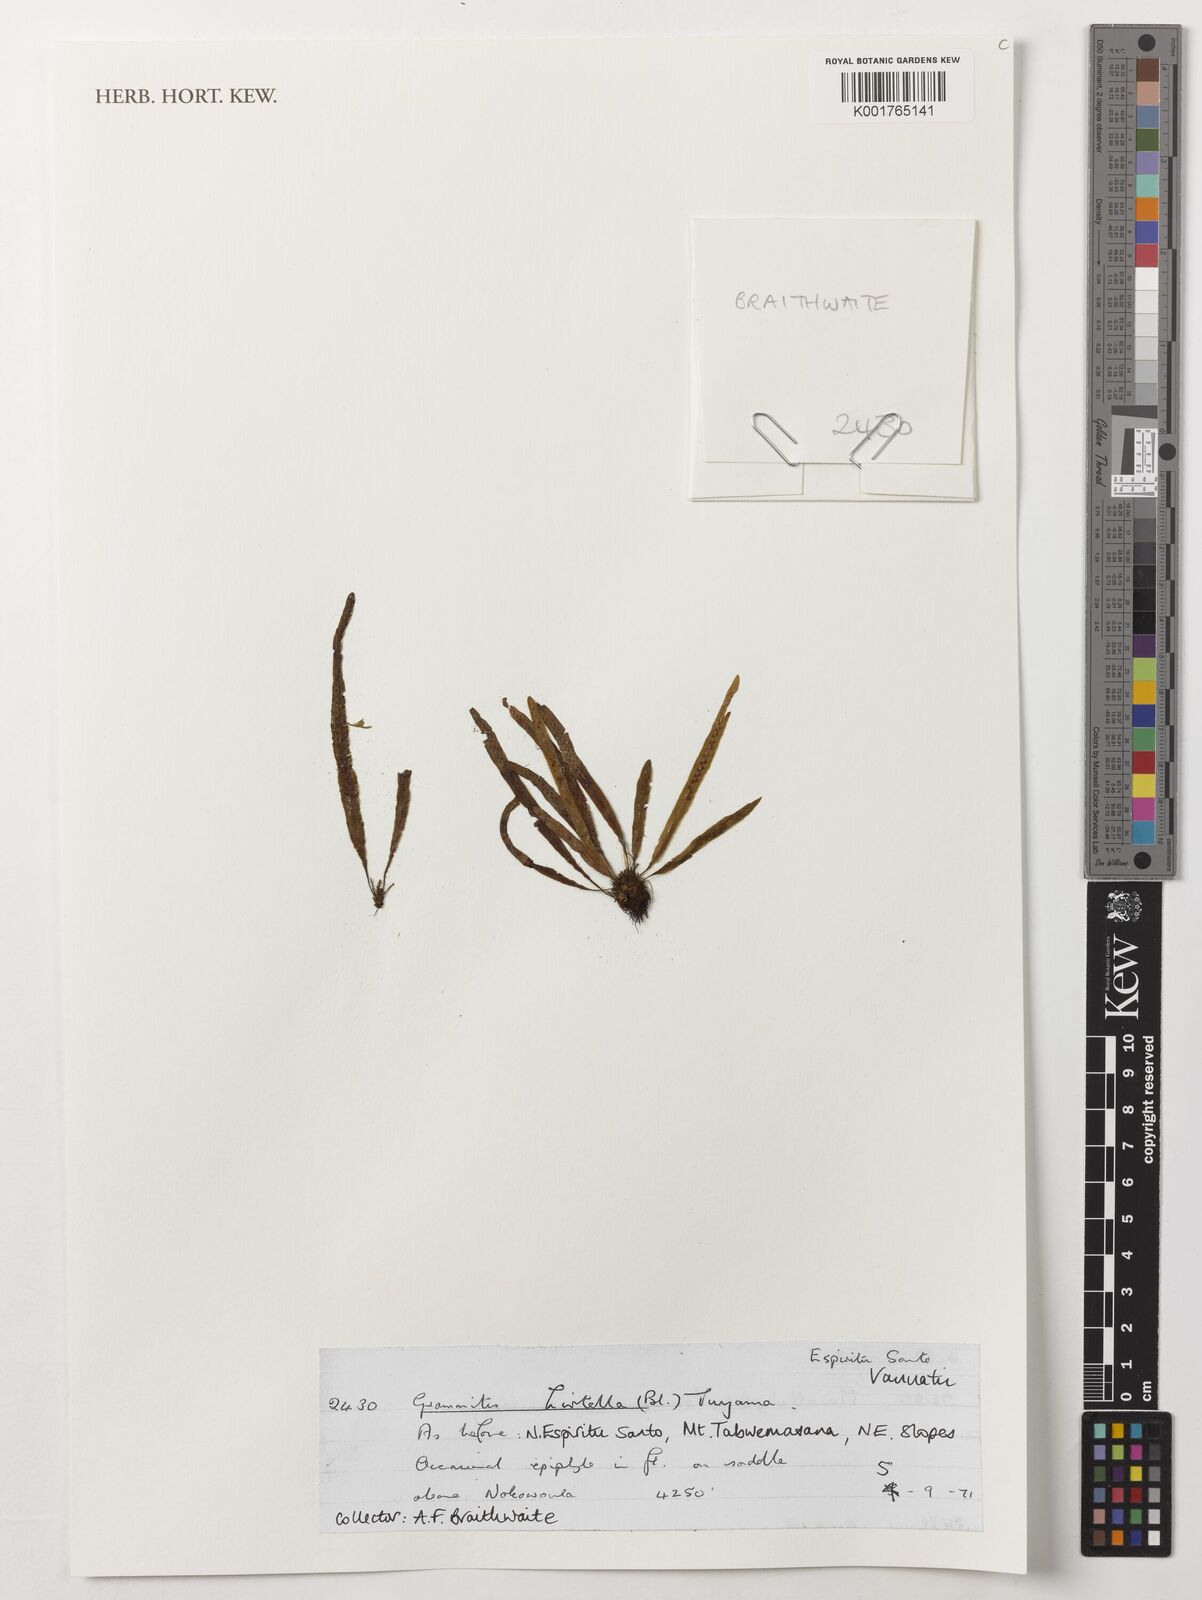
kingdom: Plantae
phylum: Tracheophyta
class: Polypodiopsida
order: Polypodiales
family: Polypodiaceae
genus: Oreogrammitis
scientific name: Oreogrammitis hirtella
